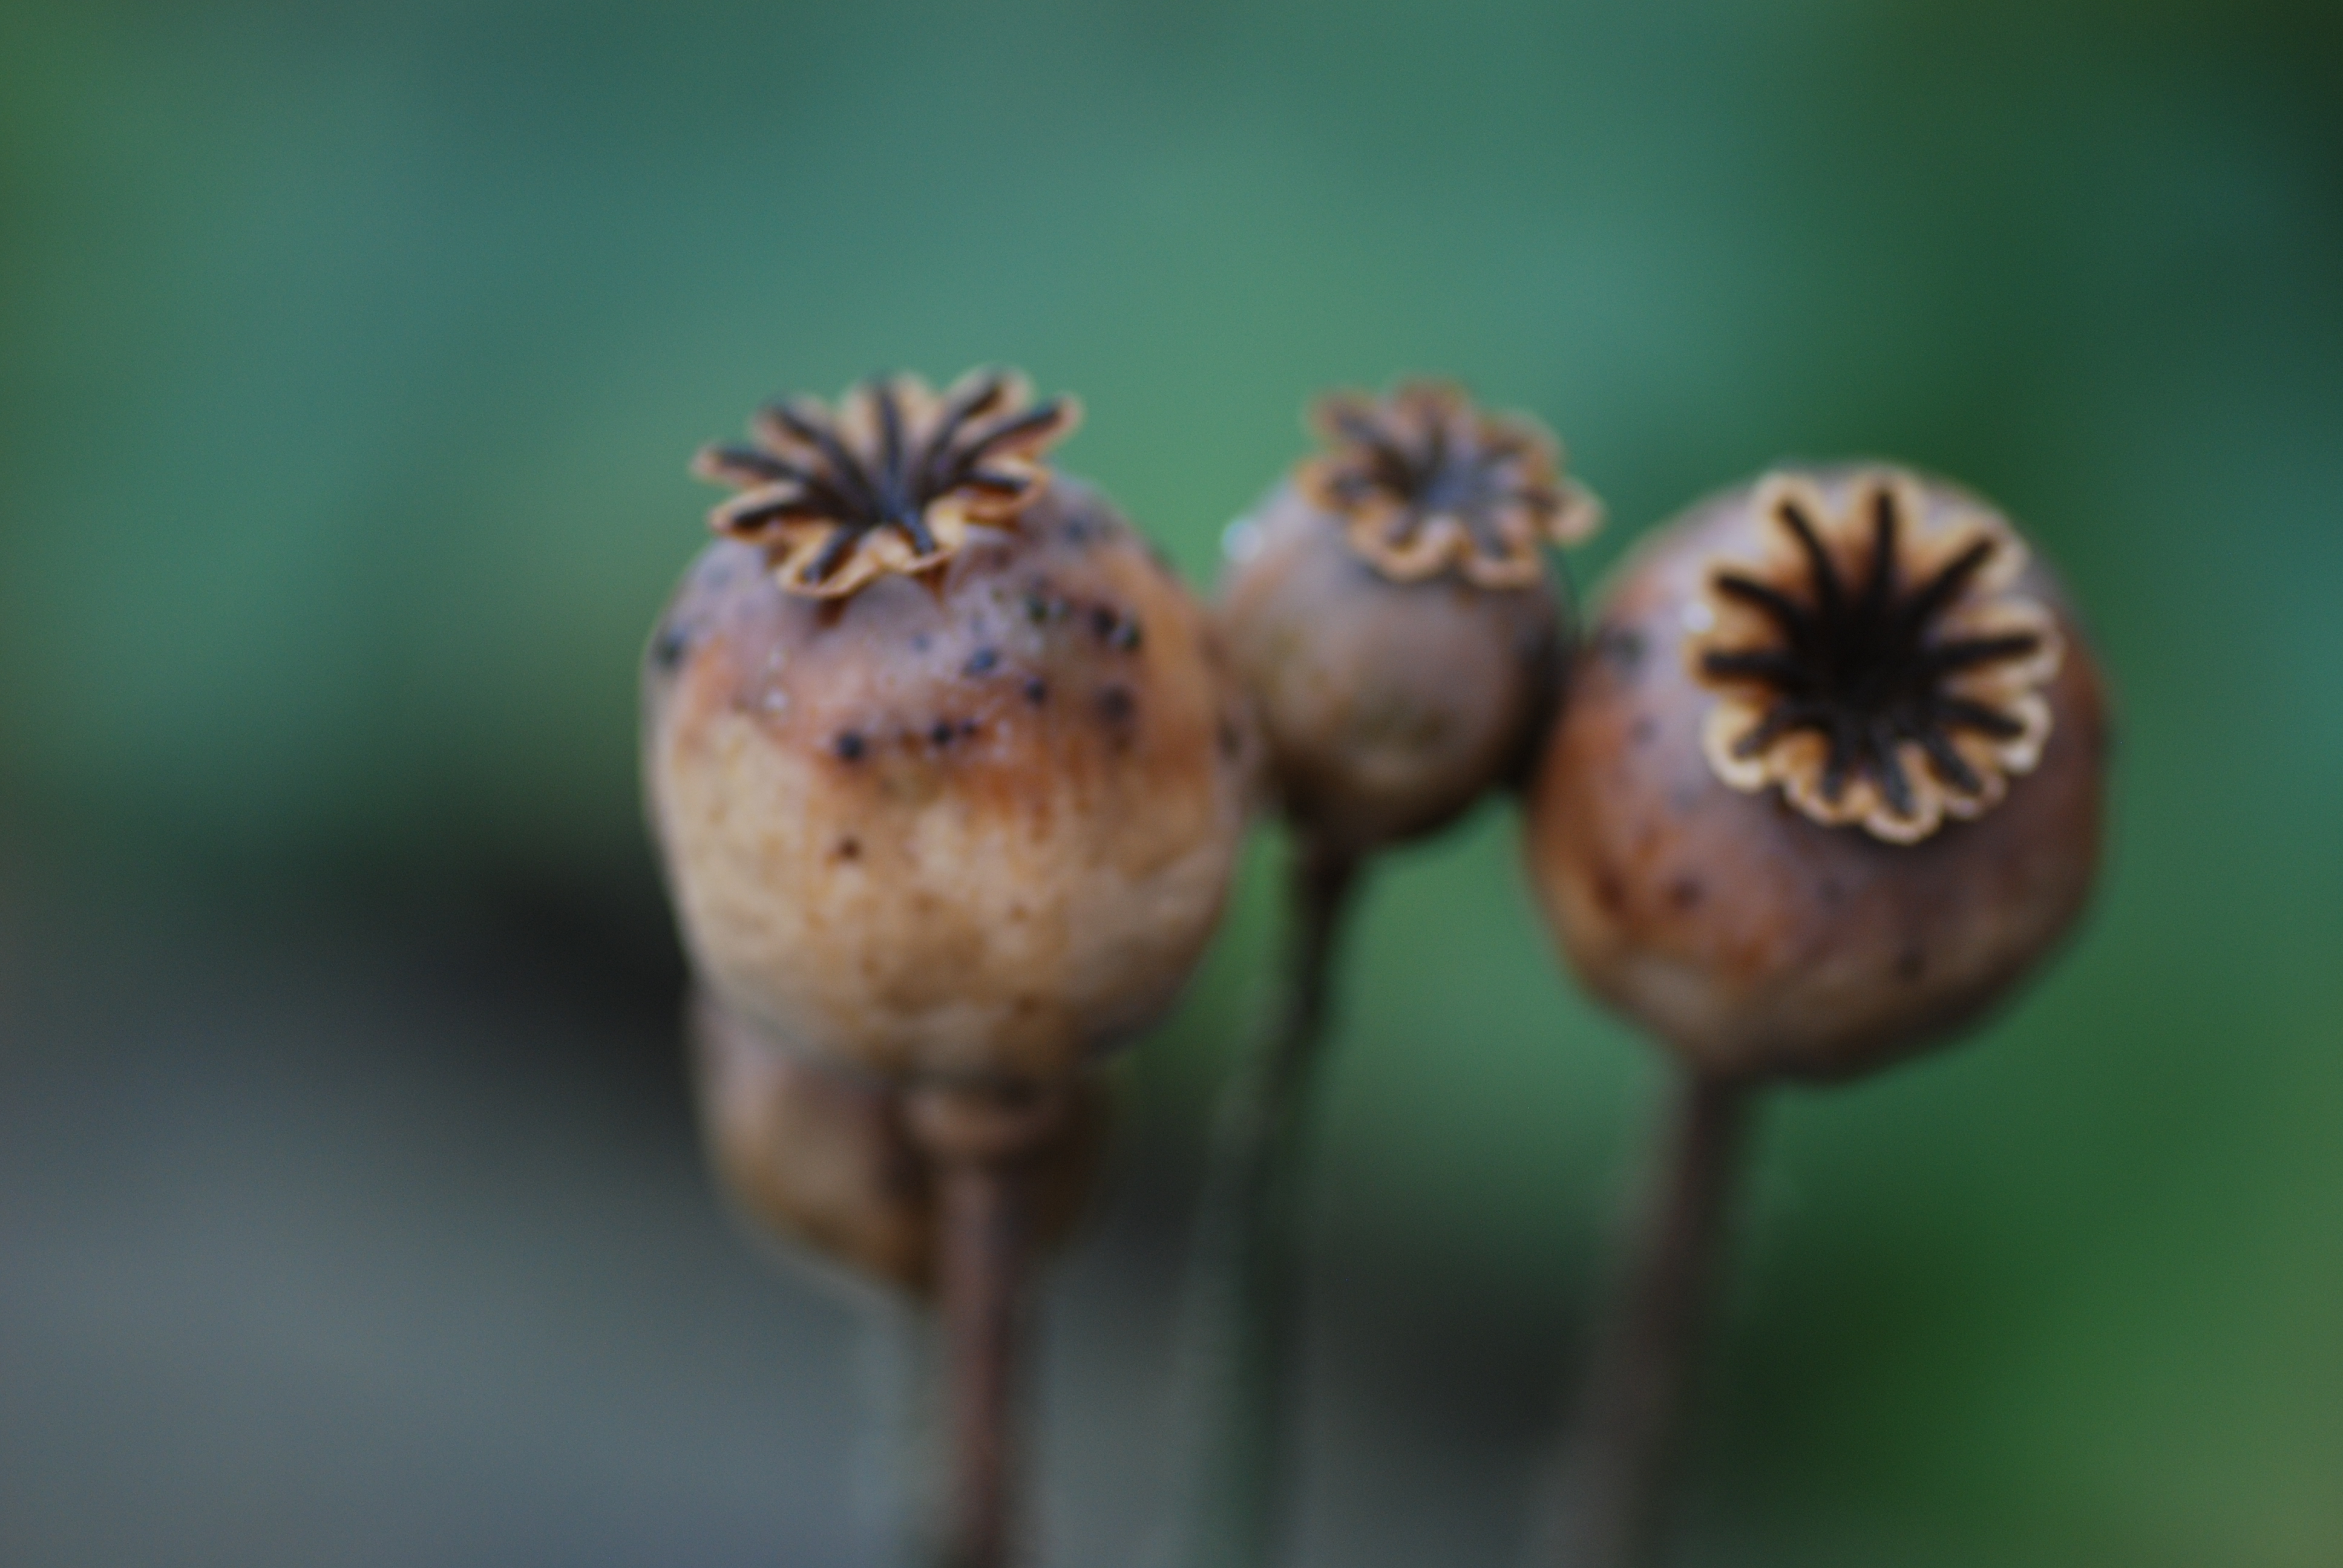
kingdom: Plantae
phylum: Tracheophyta
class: Magnoliopsida
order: Ranunculales
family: Papaveraceae
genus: Papaver
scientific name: Papaver somniferum
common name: Opium poppy
